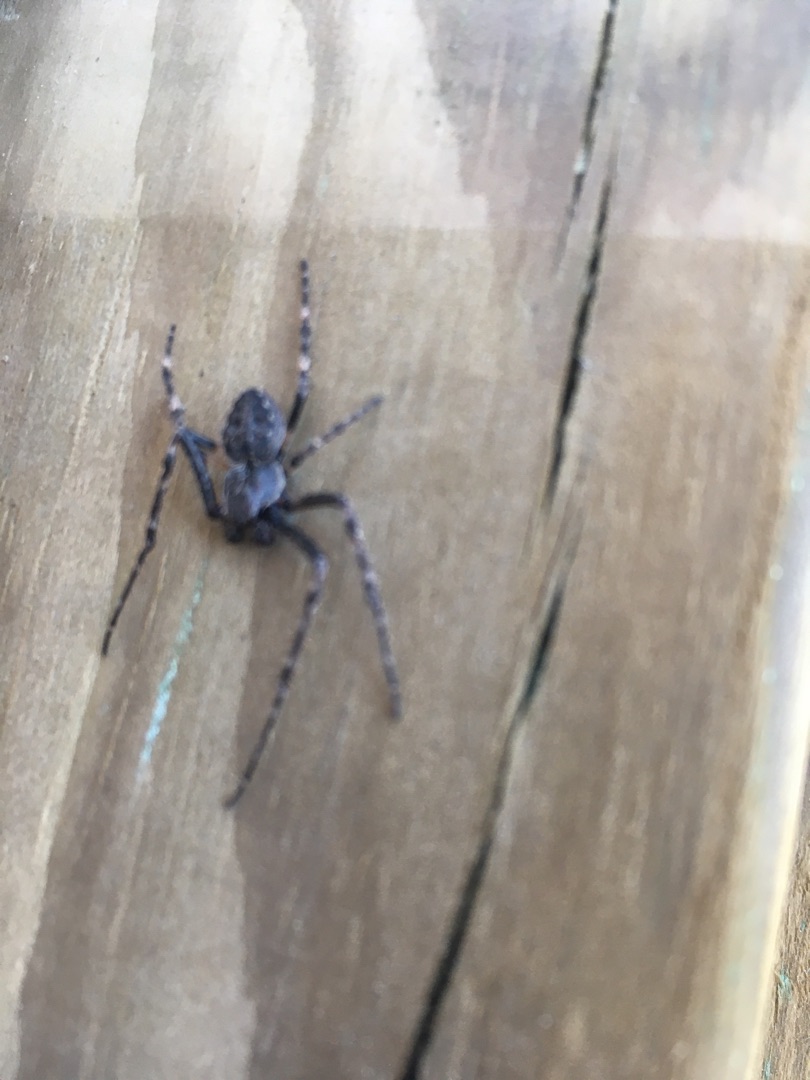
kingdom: Animalia
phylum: Arthropoda
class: Arachnida
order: Araneae
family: Araneidae
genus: Nuctenea
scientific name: Nuctenea umbratica
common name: Flad hjulspinder
